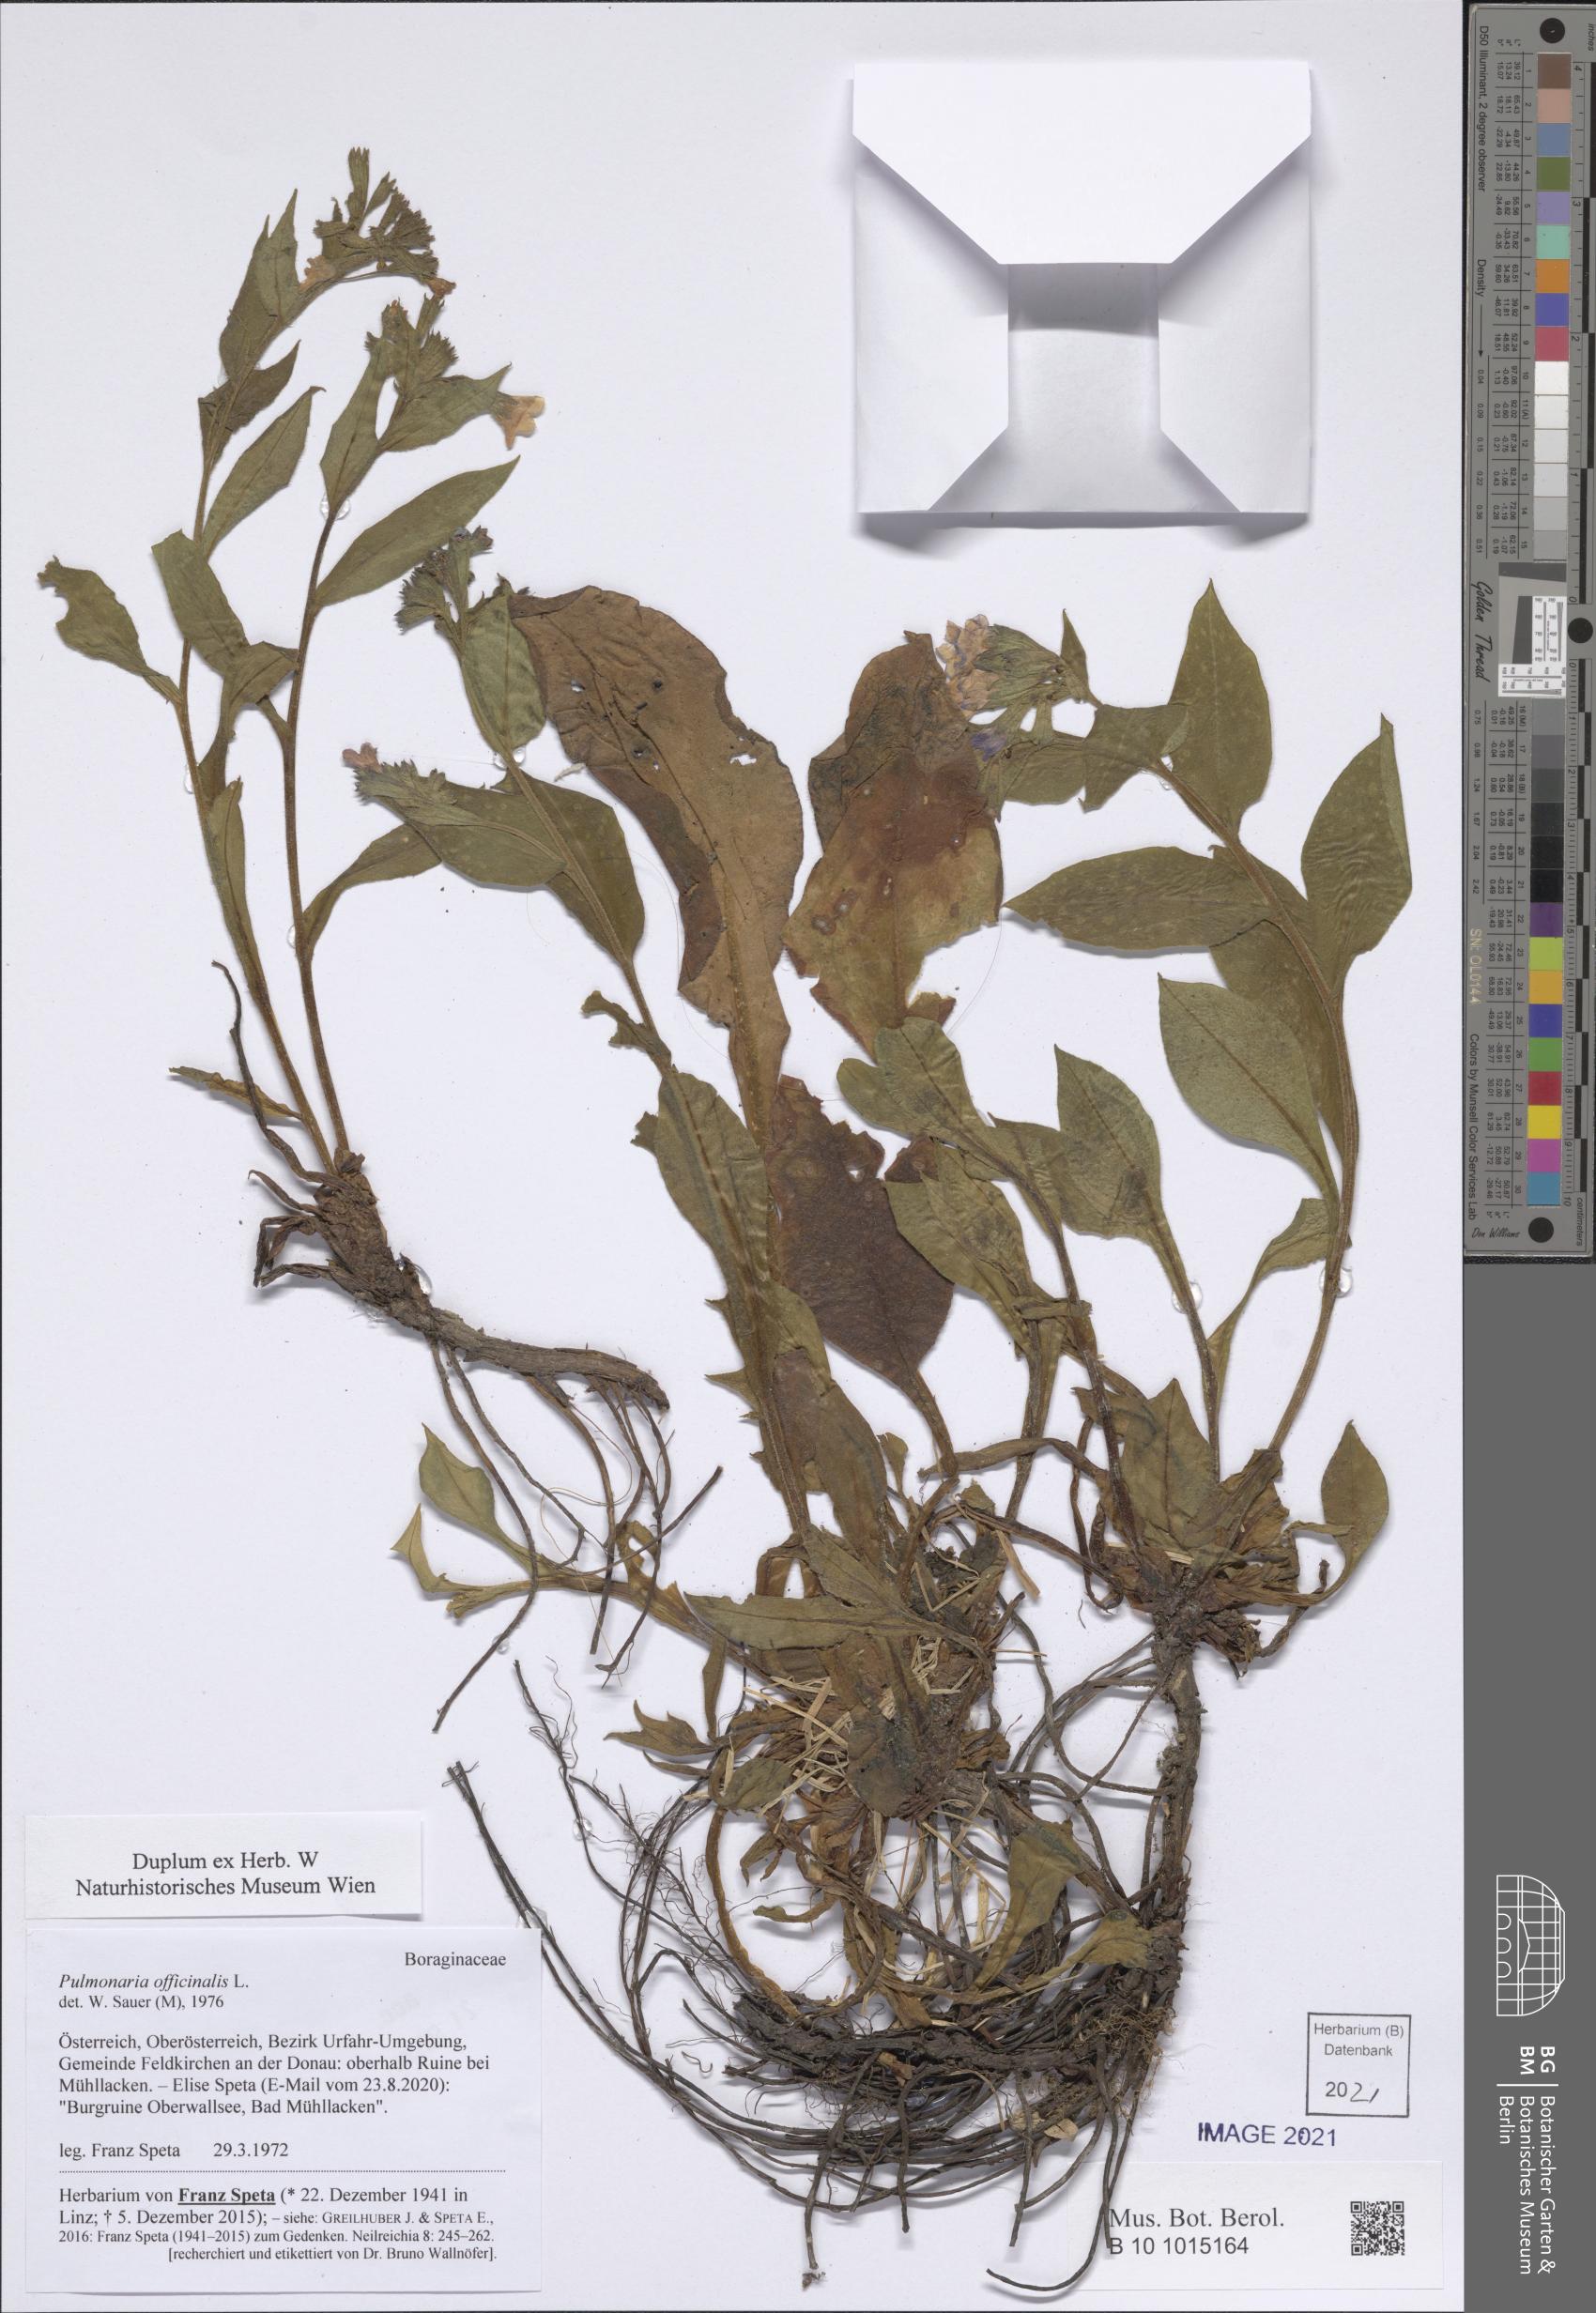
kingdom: Plantae
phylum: Tracheophyta
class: Magnoliopsida
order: Boraginales
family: Boraginaceae
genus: Pulmonaria
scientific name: Pulmonaria officinalis
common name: Lungwort
